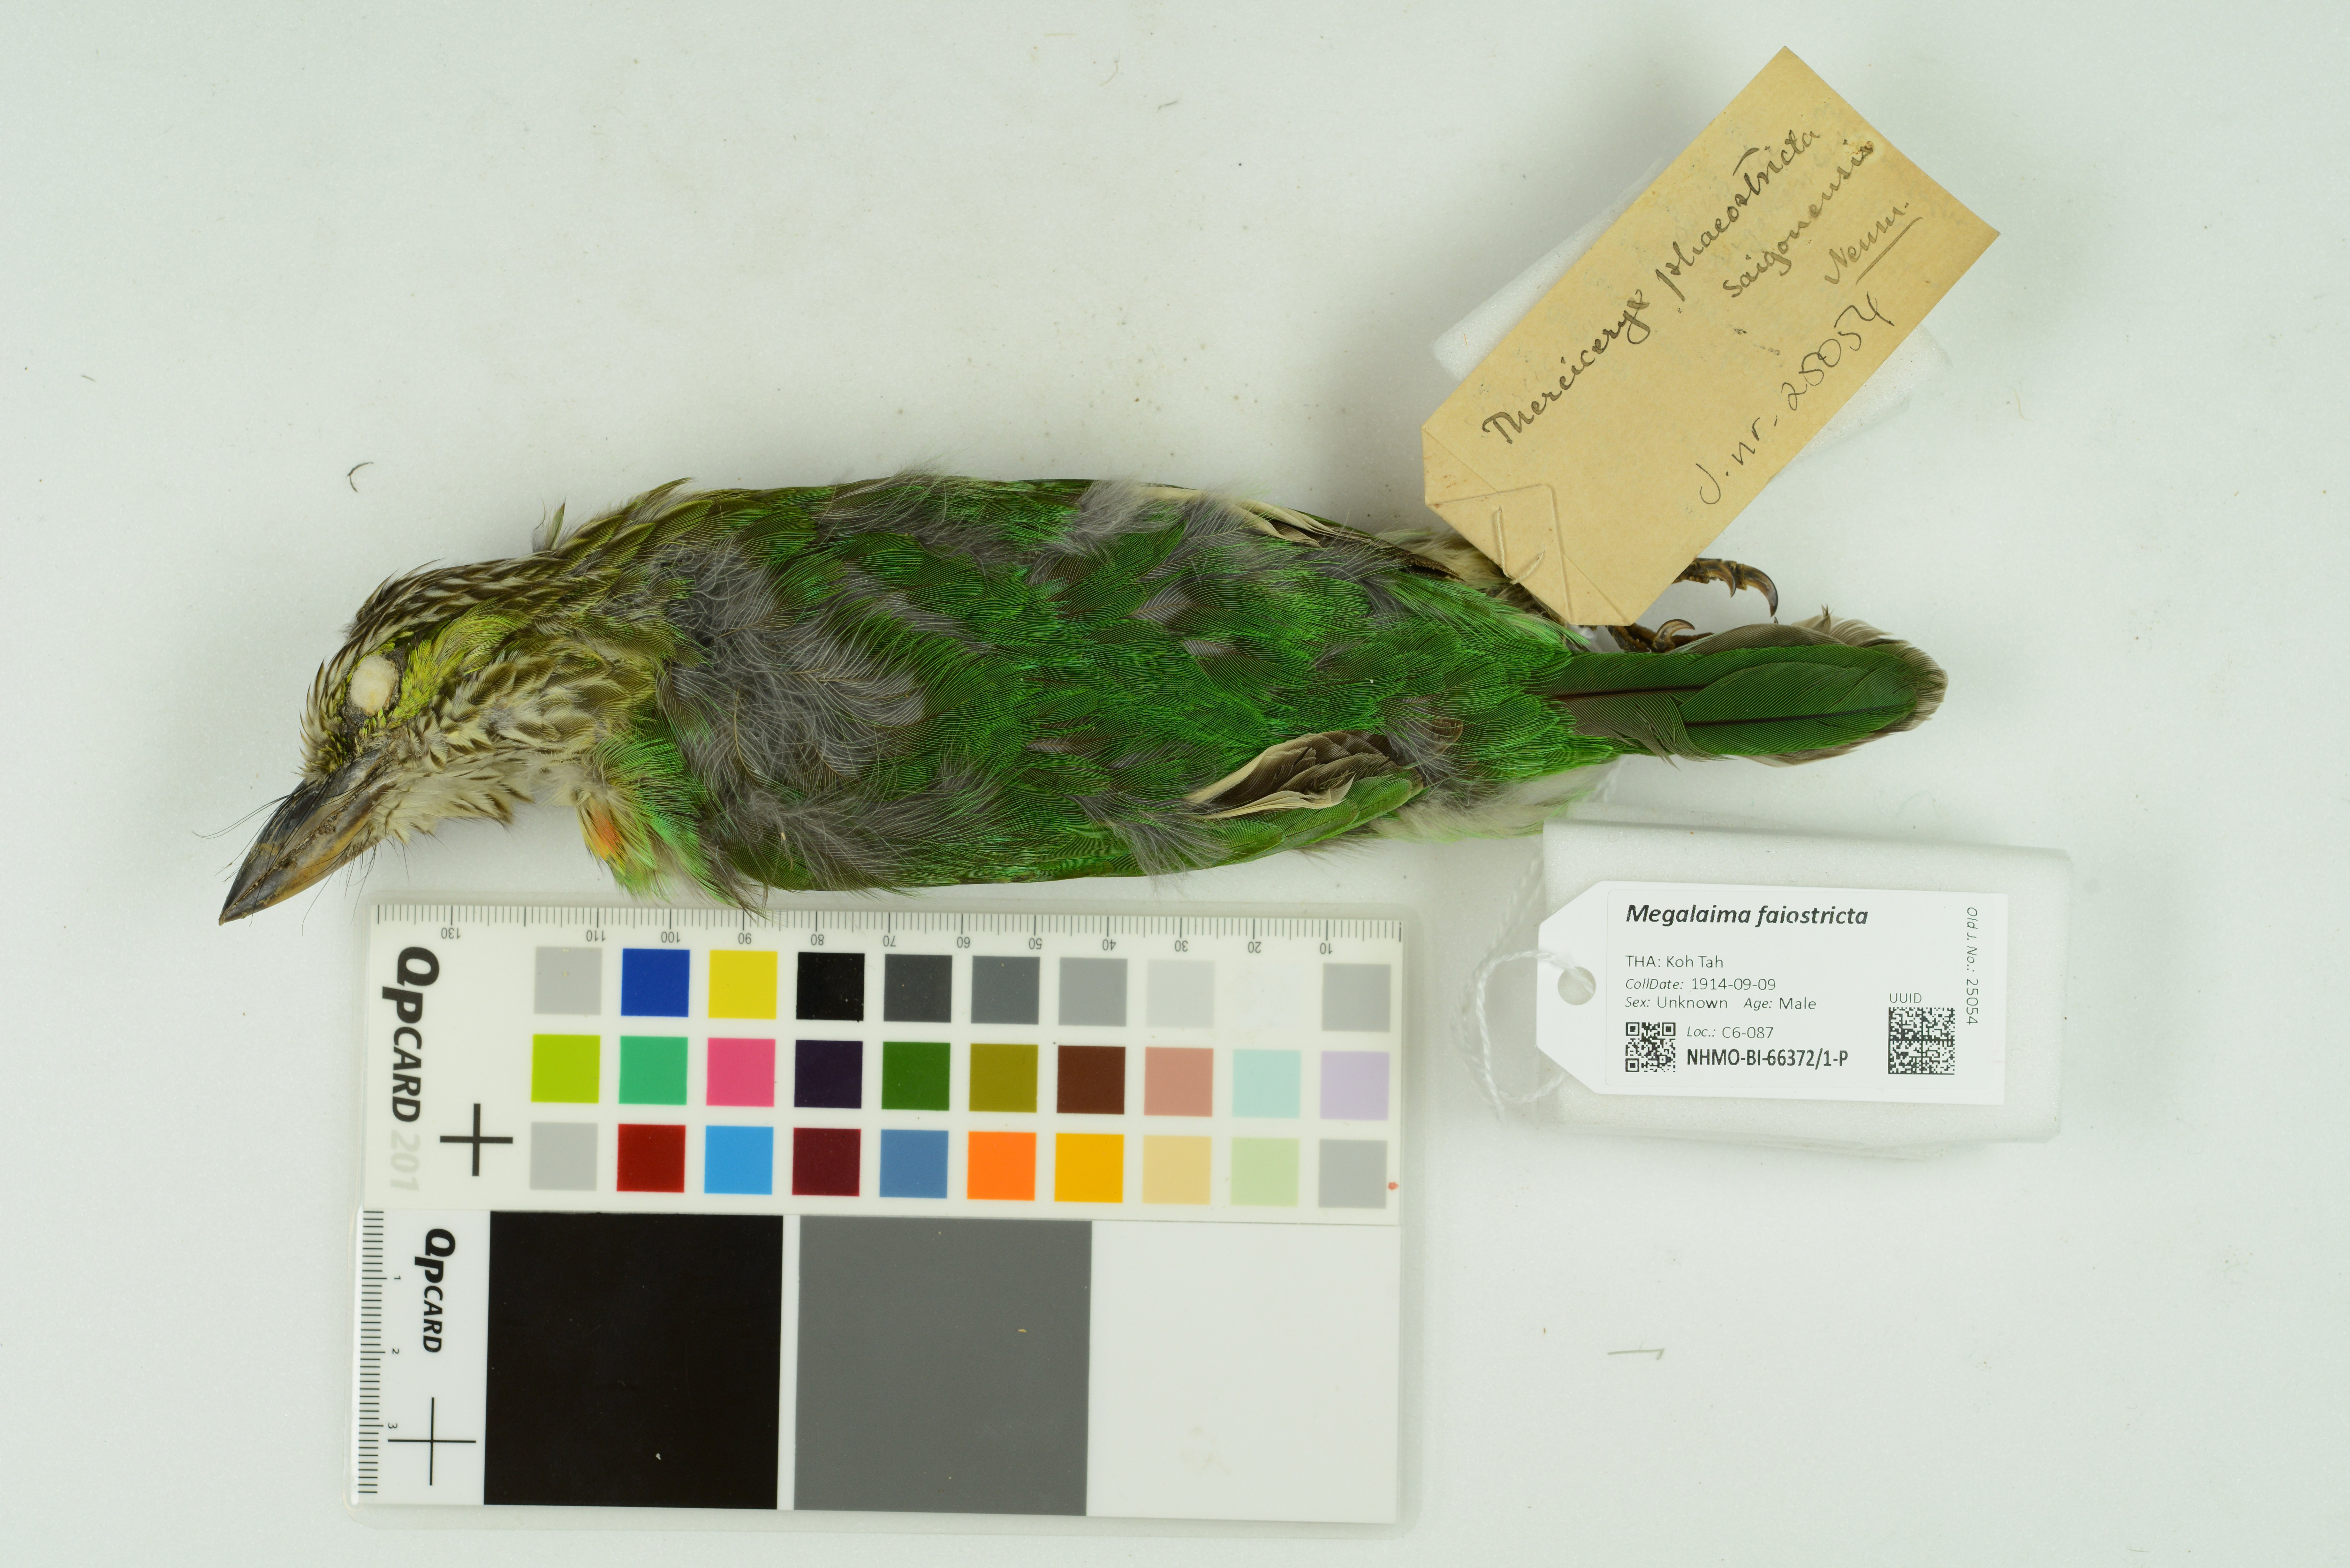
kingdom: Animalia
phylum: Chordata
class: Aves
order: Piciformes
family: Megalaimidae
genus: Psilopogon
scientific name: Psilopogon faiostrictus
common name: Green-eared barbet
